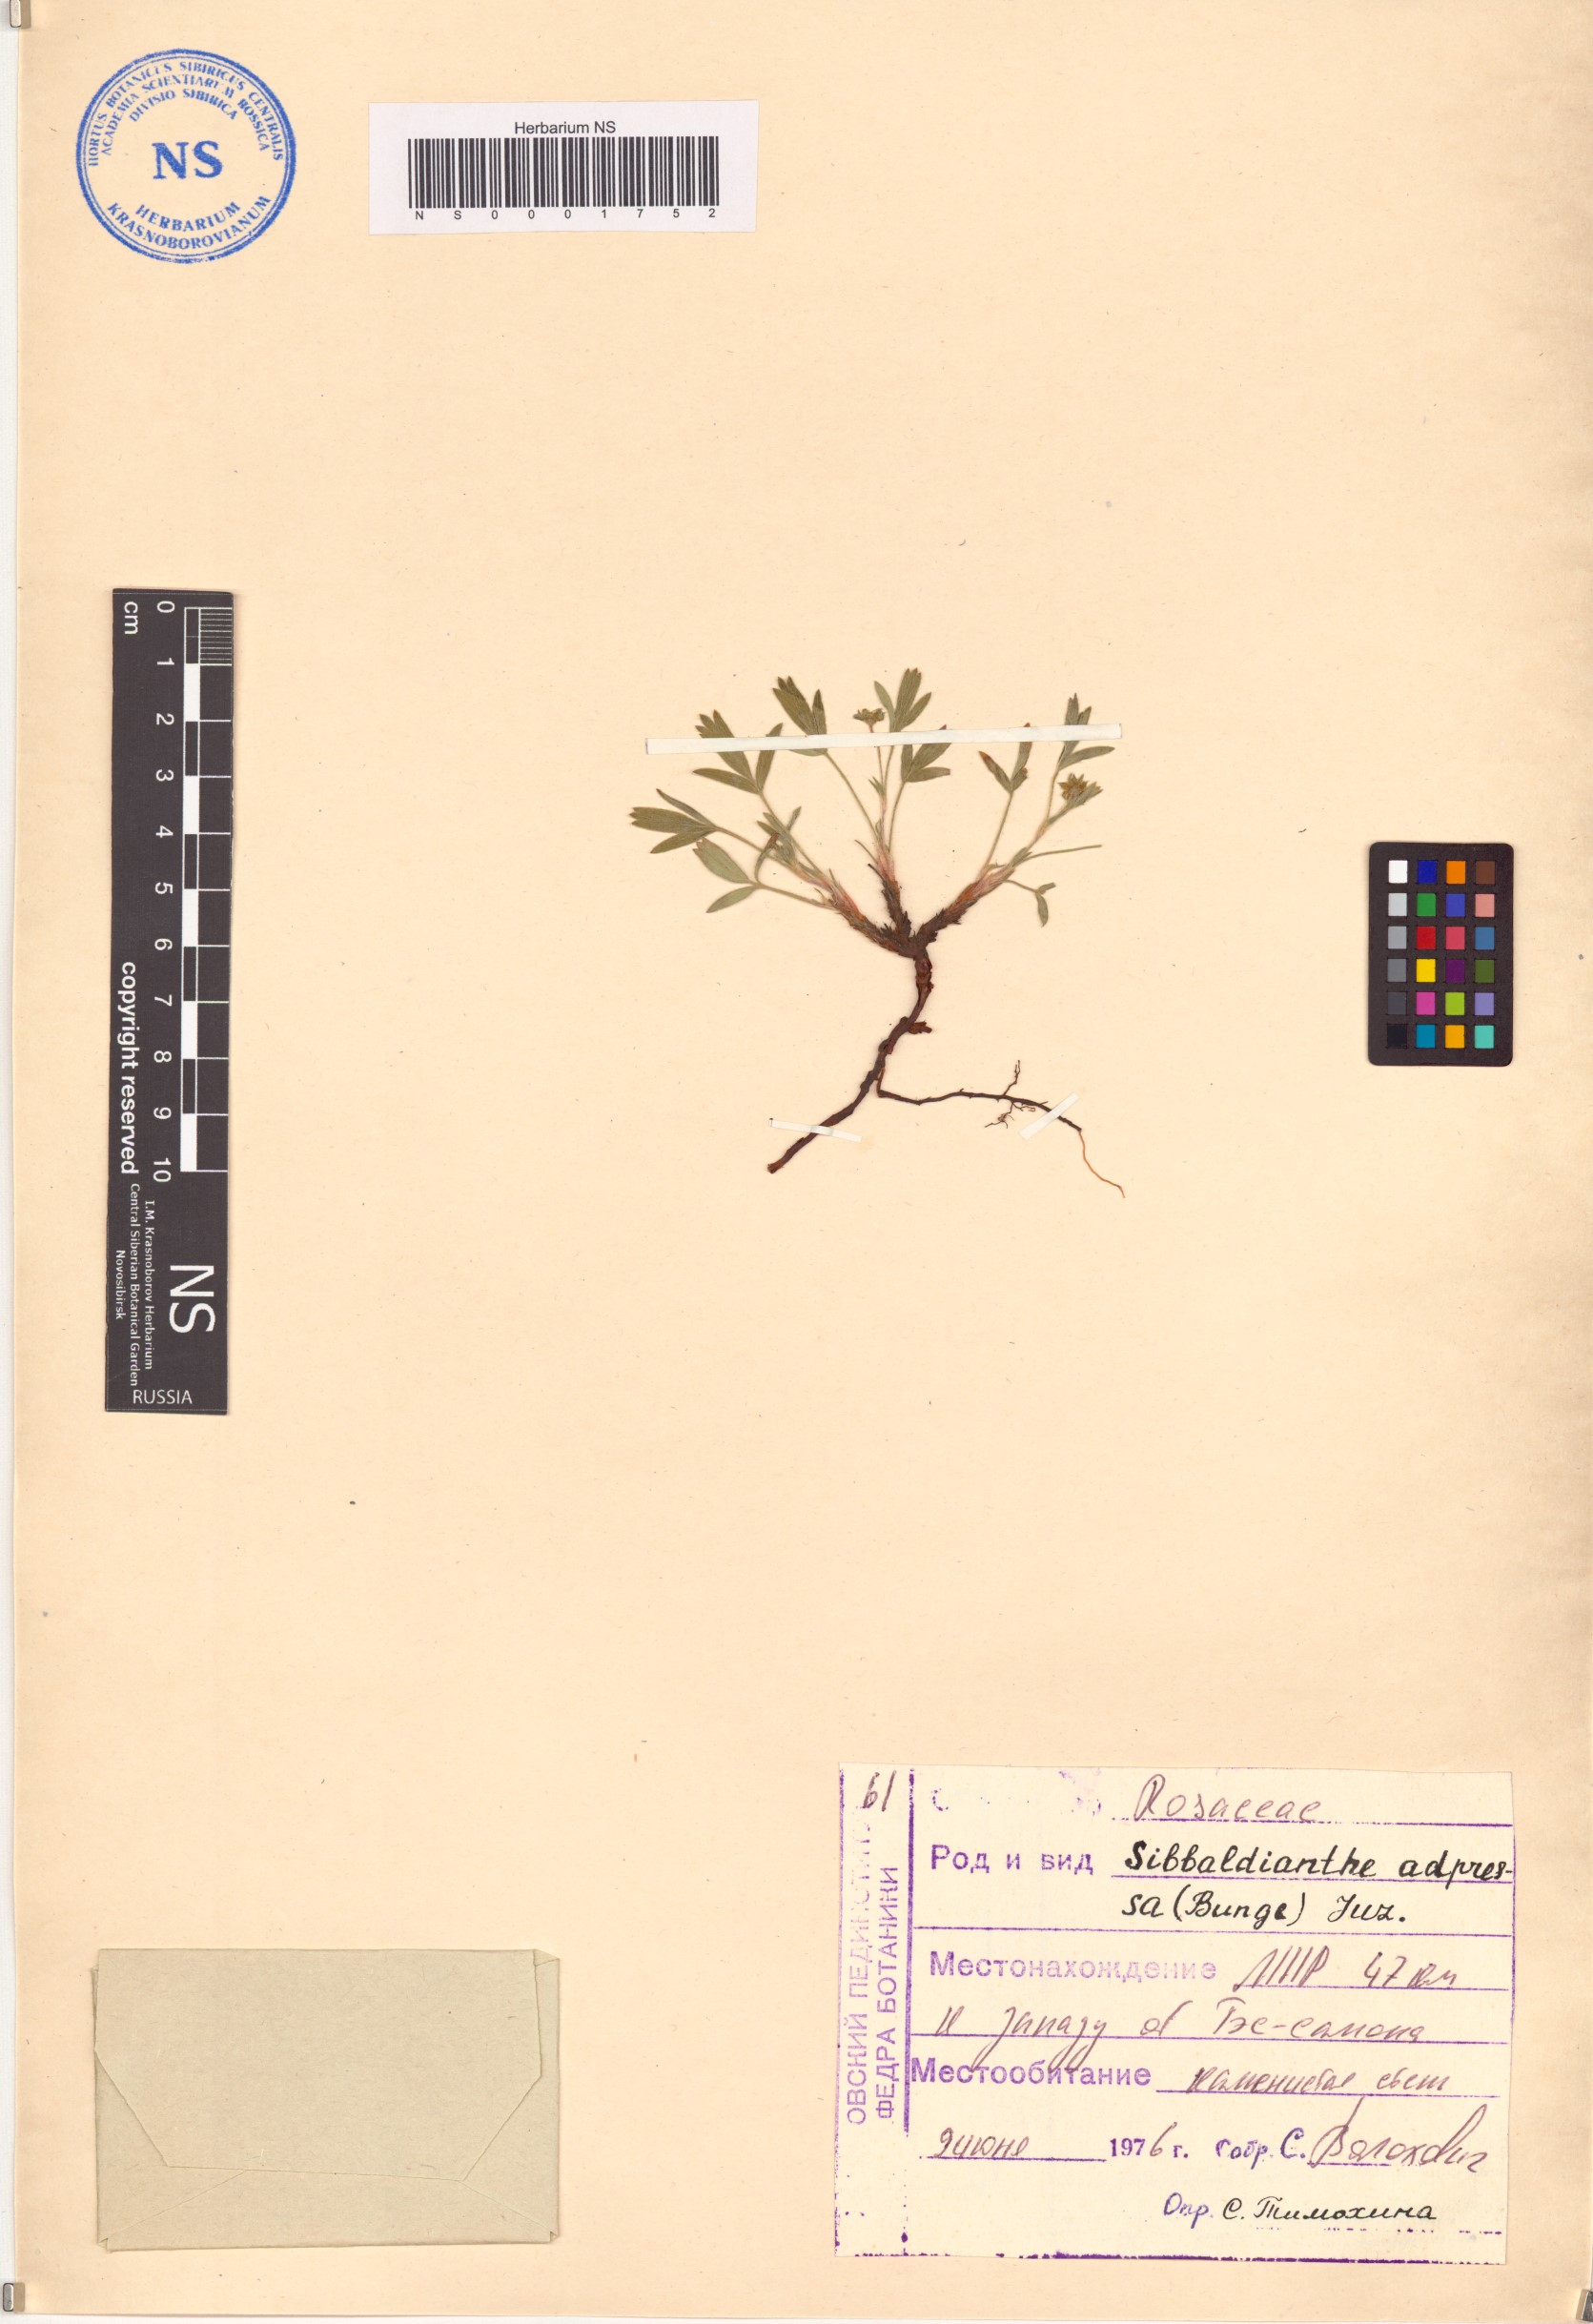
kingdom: Plantae
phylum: Tracheophyta
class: Magnoliopsida
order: Rosales
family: Rosaceae
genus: Sibbaldianthe
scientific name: Sibbaldianthe adpressa
